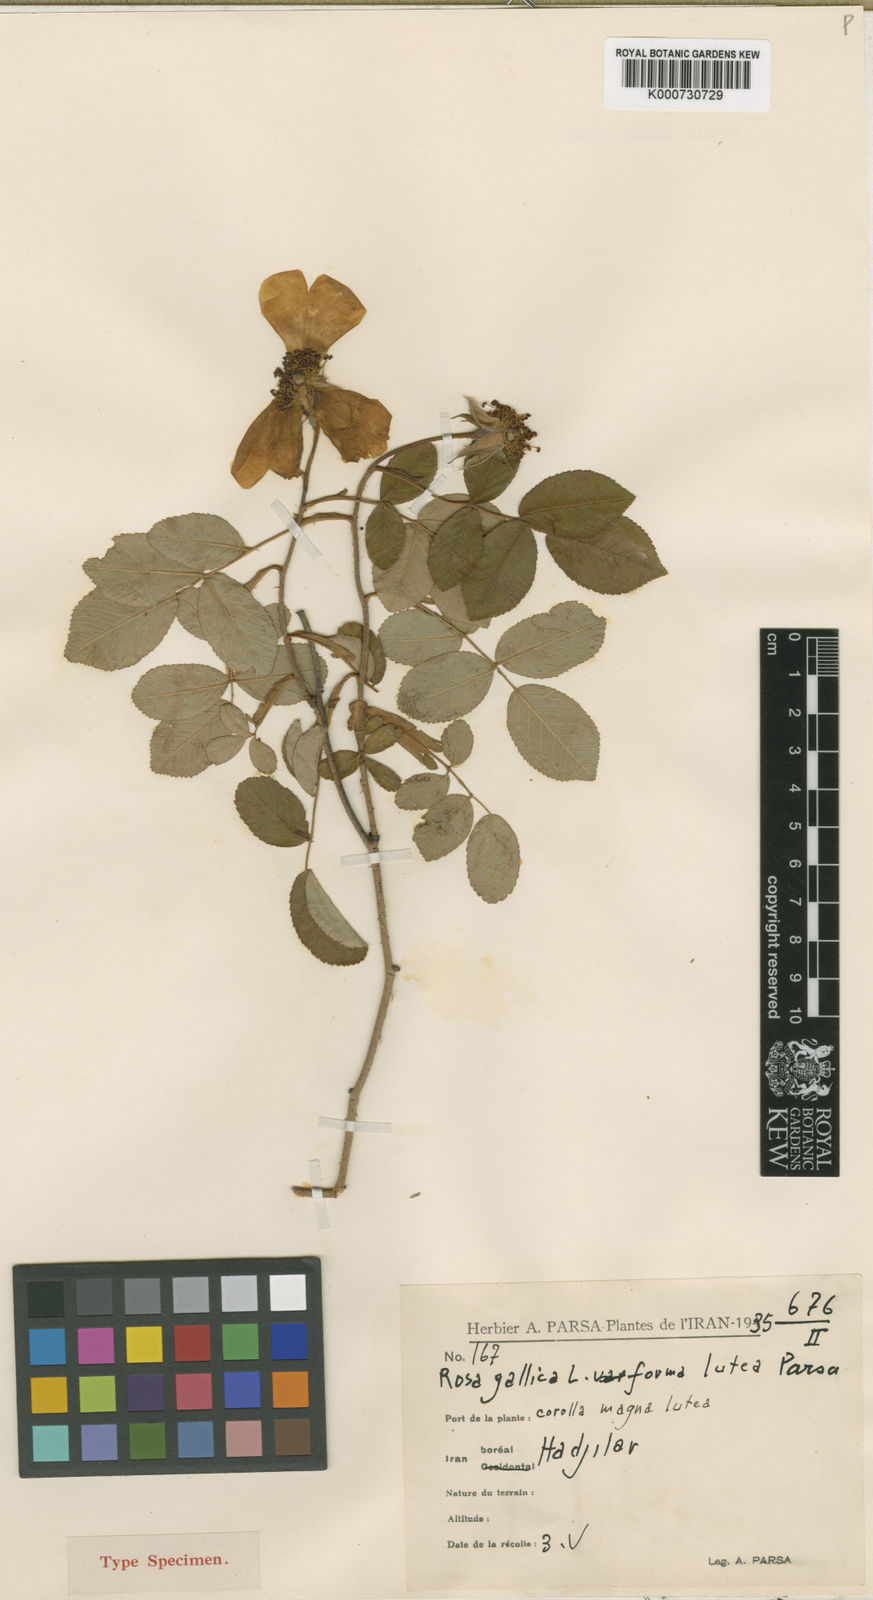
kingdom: Plantae
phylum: Tracheophyta
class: Magnoliopsida
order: Rosales
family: Rosaceae
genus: Rosa
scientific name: Rosa gallica
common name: French rose
